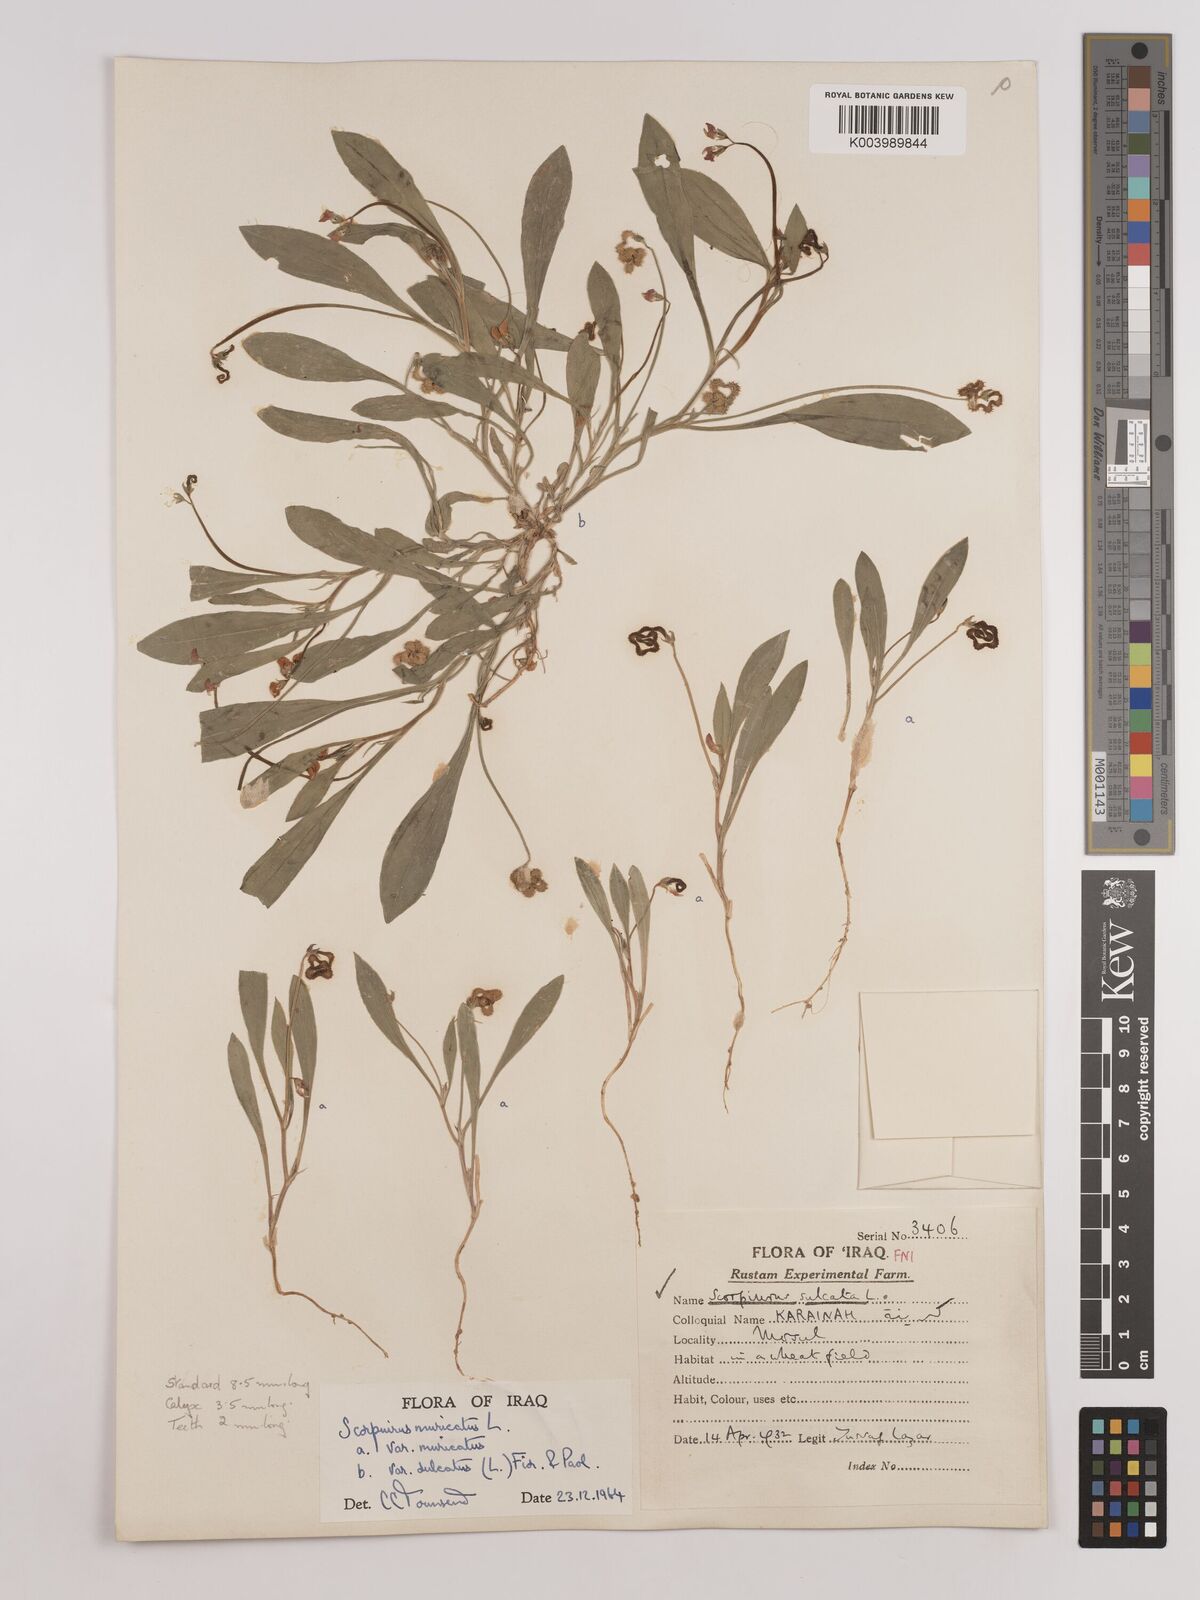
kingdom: Plantae
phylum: Tracheophyta
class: Magnoliopsida
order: Fabales
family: Fabaceae
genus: Scorpiurus
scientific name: Scorpiurus muricatus
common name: Caterpillar-plant
